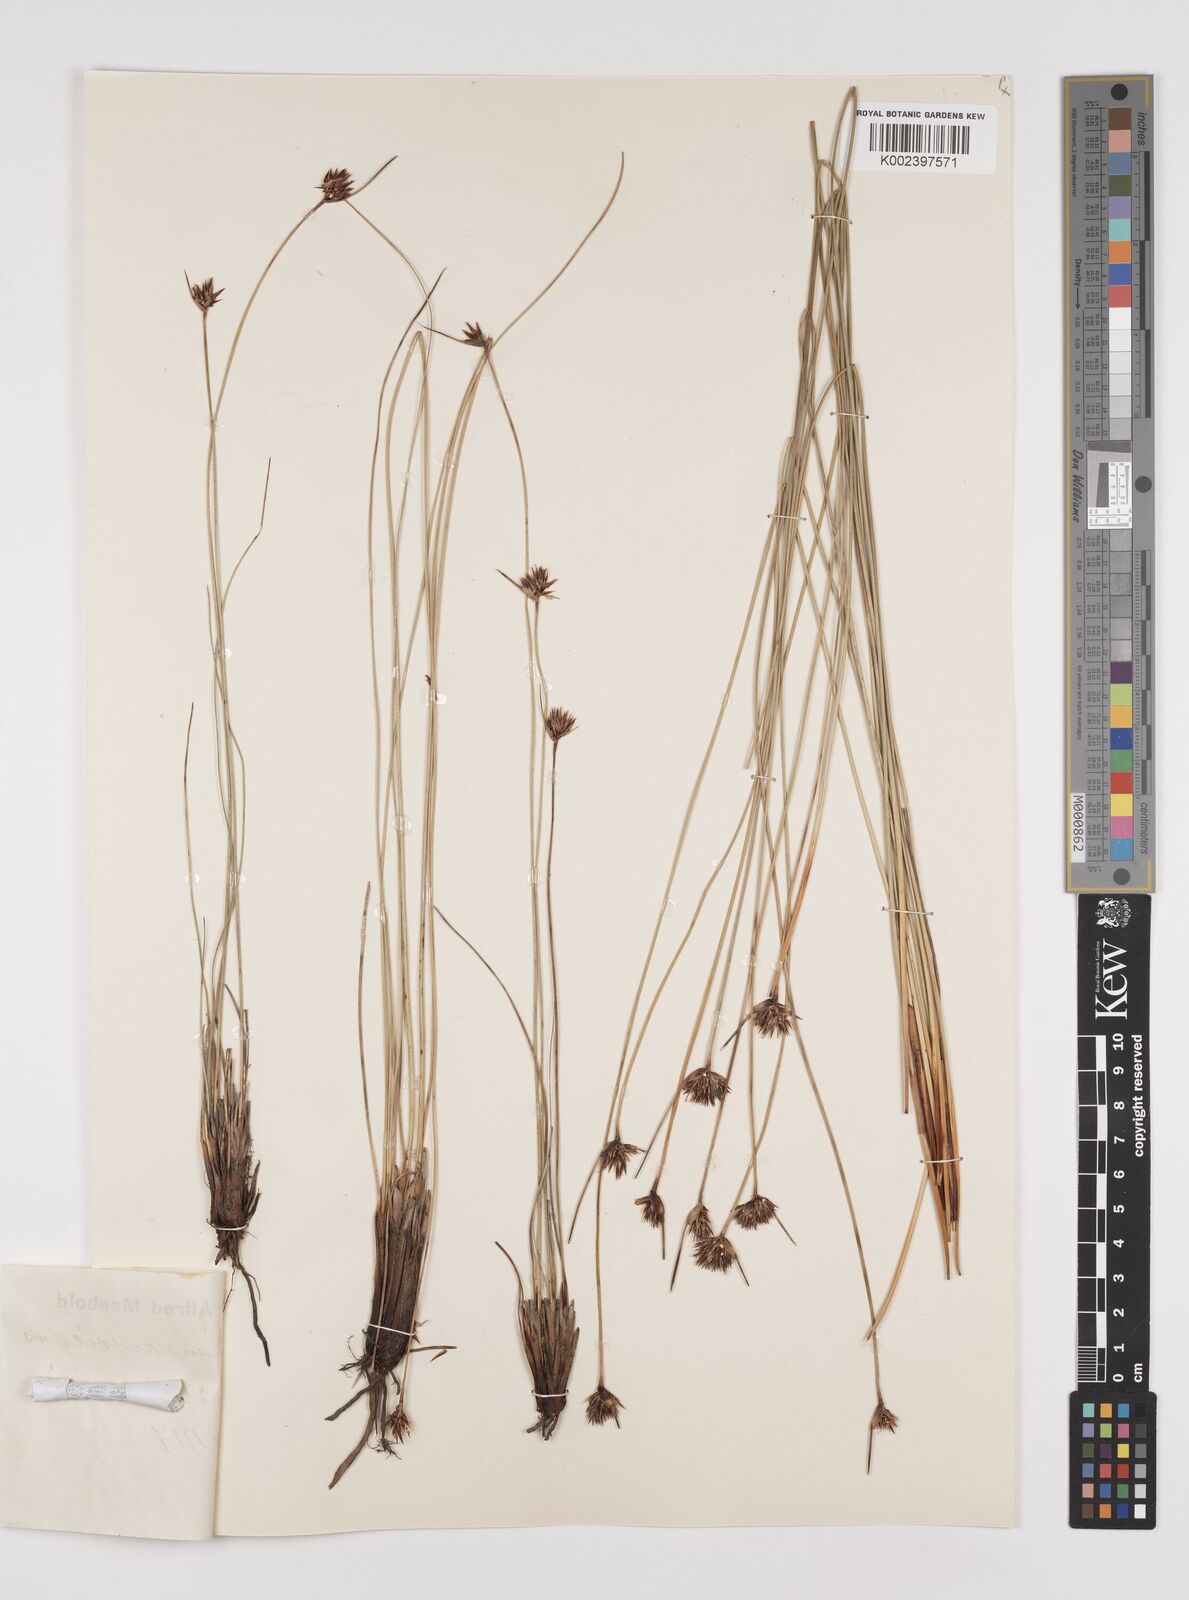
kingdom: Plantae
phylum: Tracheophyta
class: Liliopsida
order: Poales
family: Cyperaceae
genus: Schoenus
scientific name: Schoenus nigricans
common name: Black bog-rush
